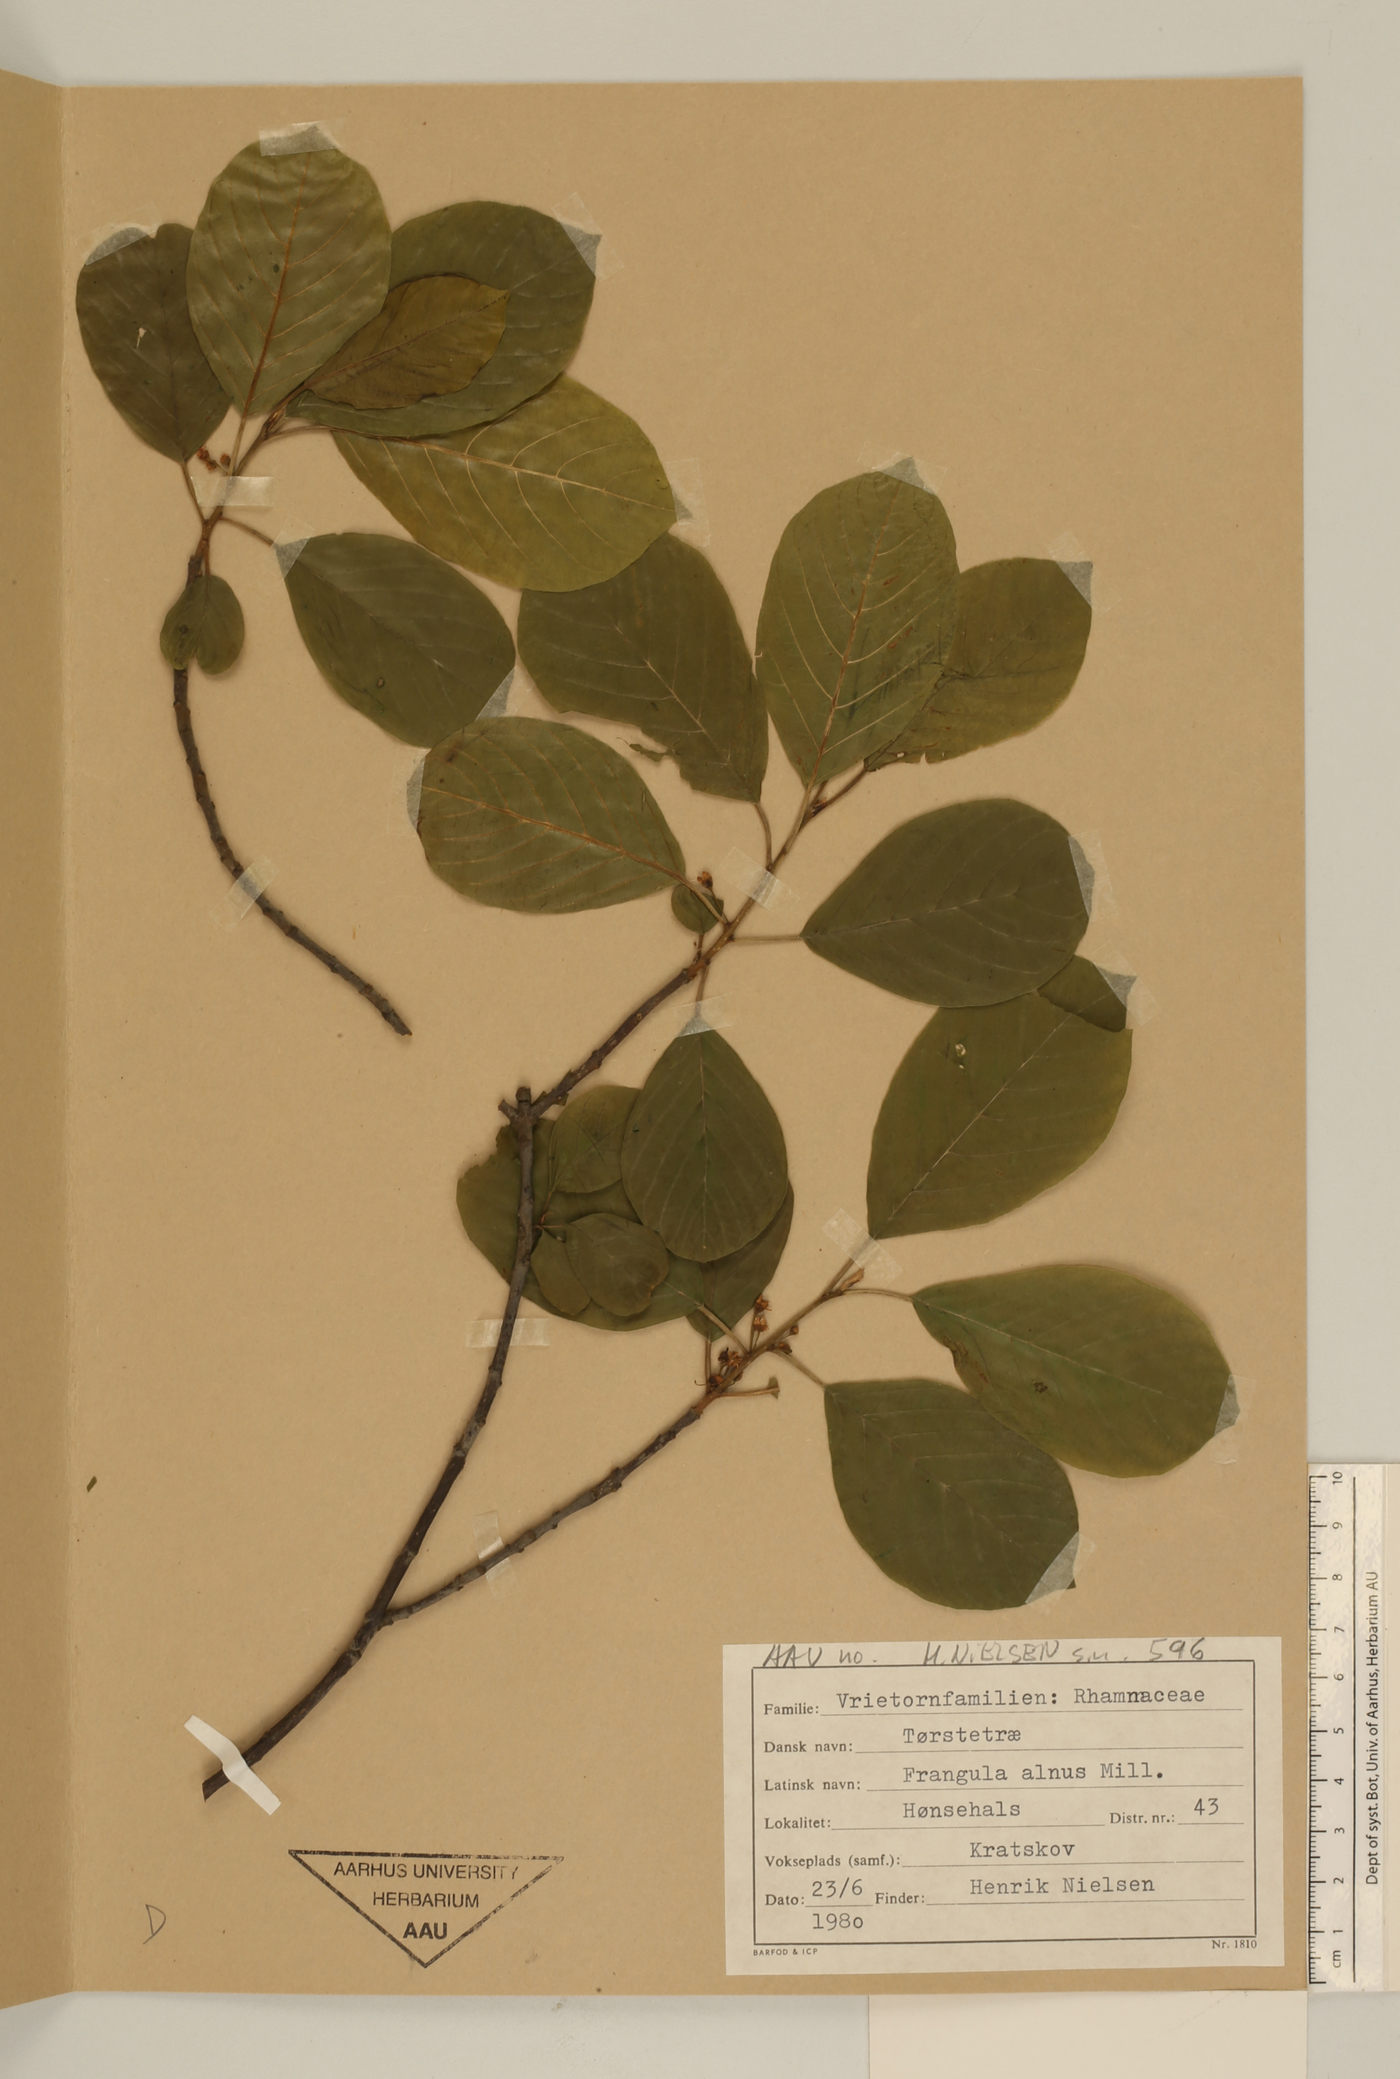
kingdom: Plantae
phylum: Tracheophyta
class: Magnoliopsida
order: Rosales
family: Rhamnaceae
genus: Frangula
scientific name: Frangula alnus
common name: Alder buckthorn
